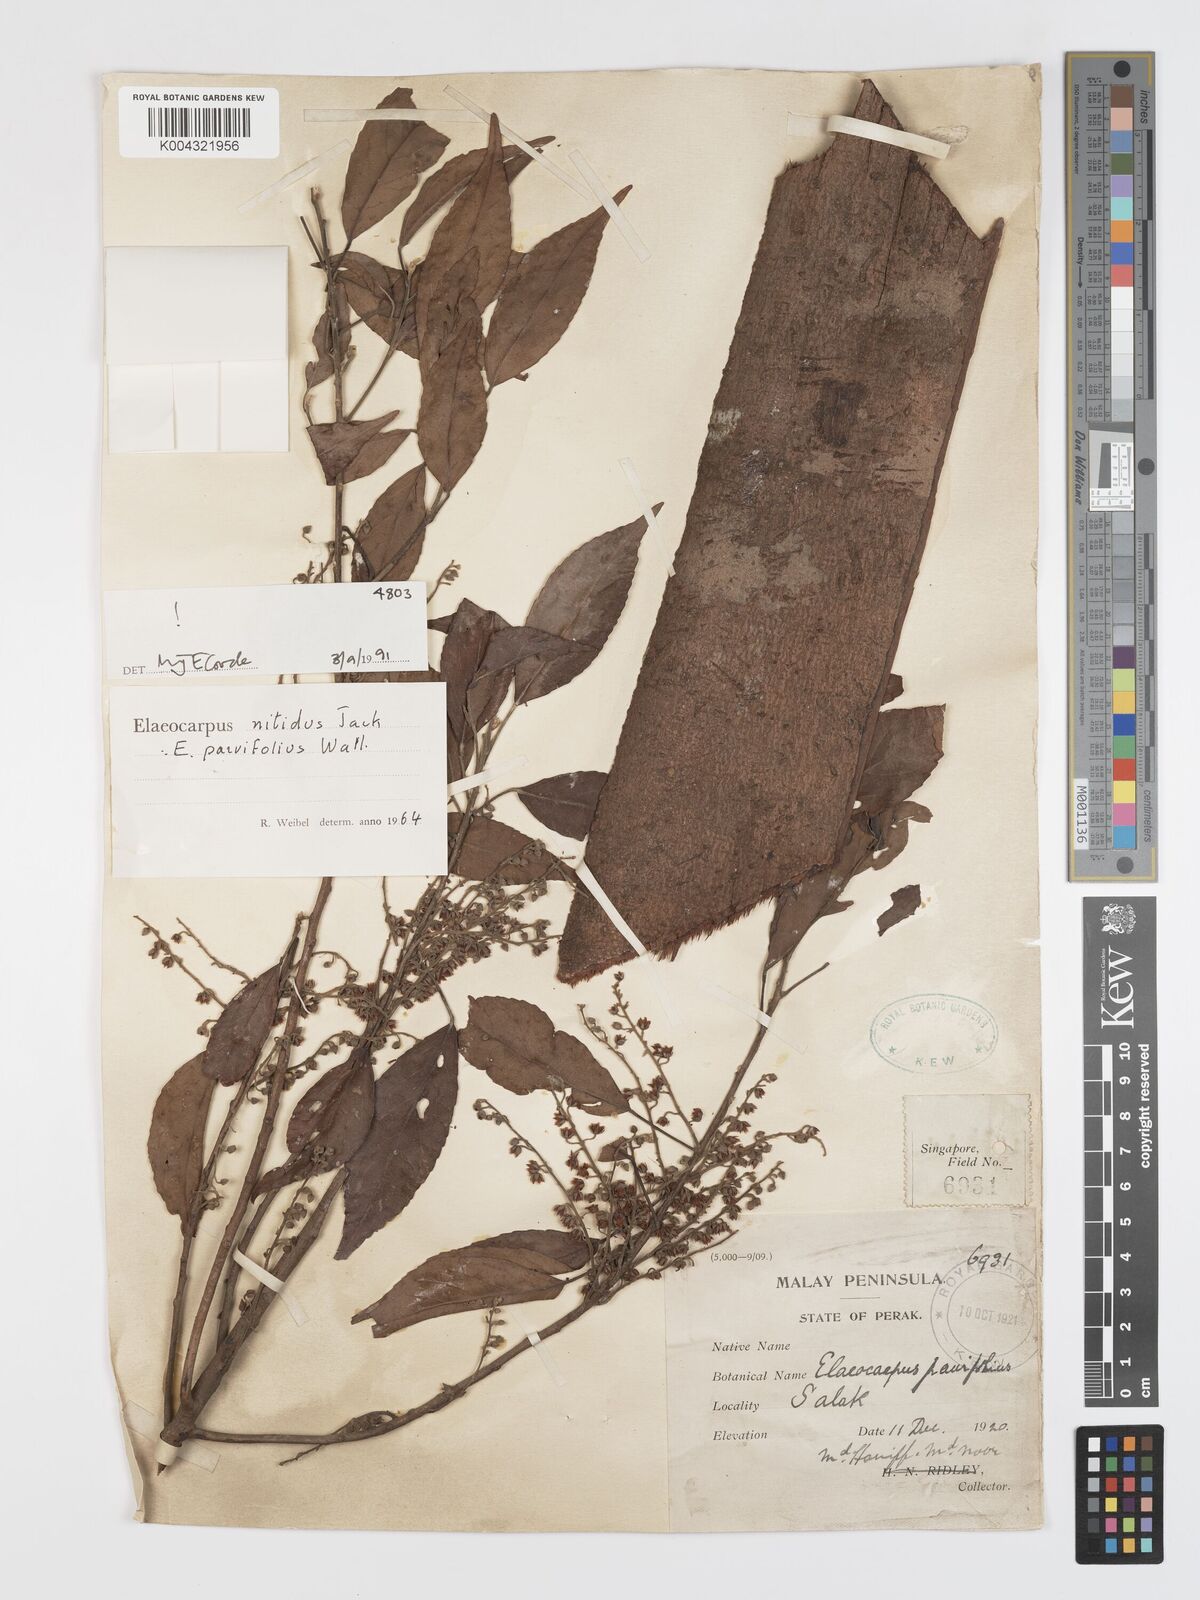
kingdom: Plantae
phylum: Tracheophyta
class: Magnoliopsida
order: Oxalidales
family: Elaeocarpaceae
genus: Elaeocarpus
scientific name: Elaeocarpus nitidus
